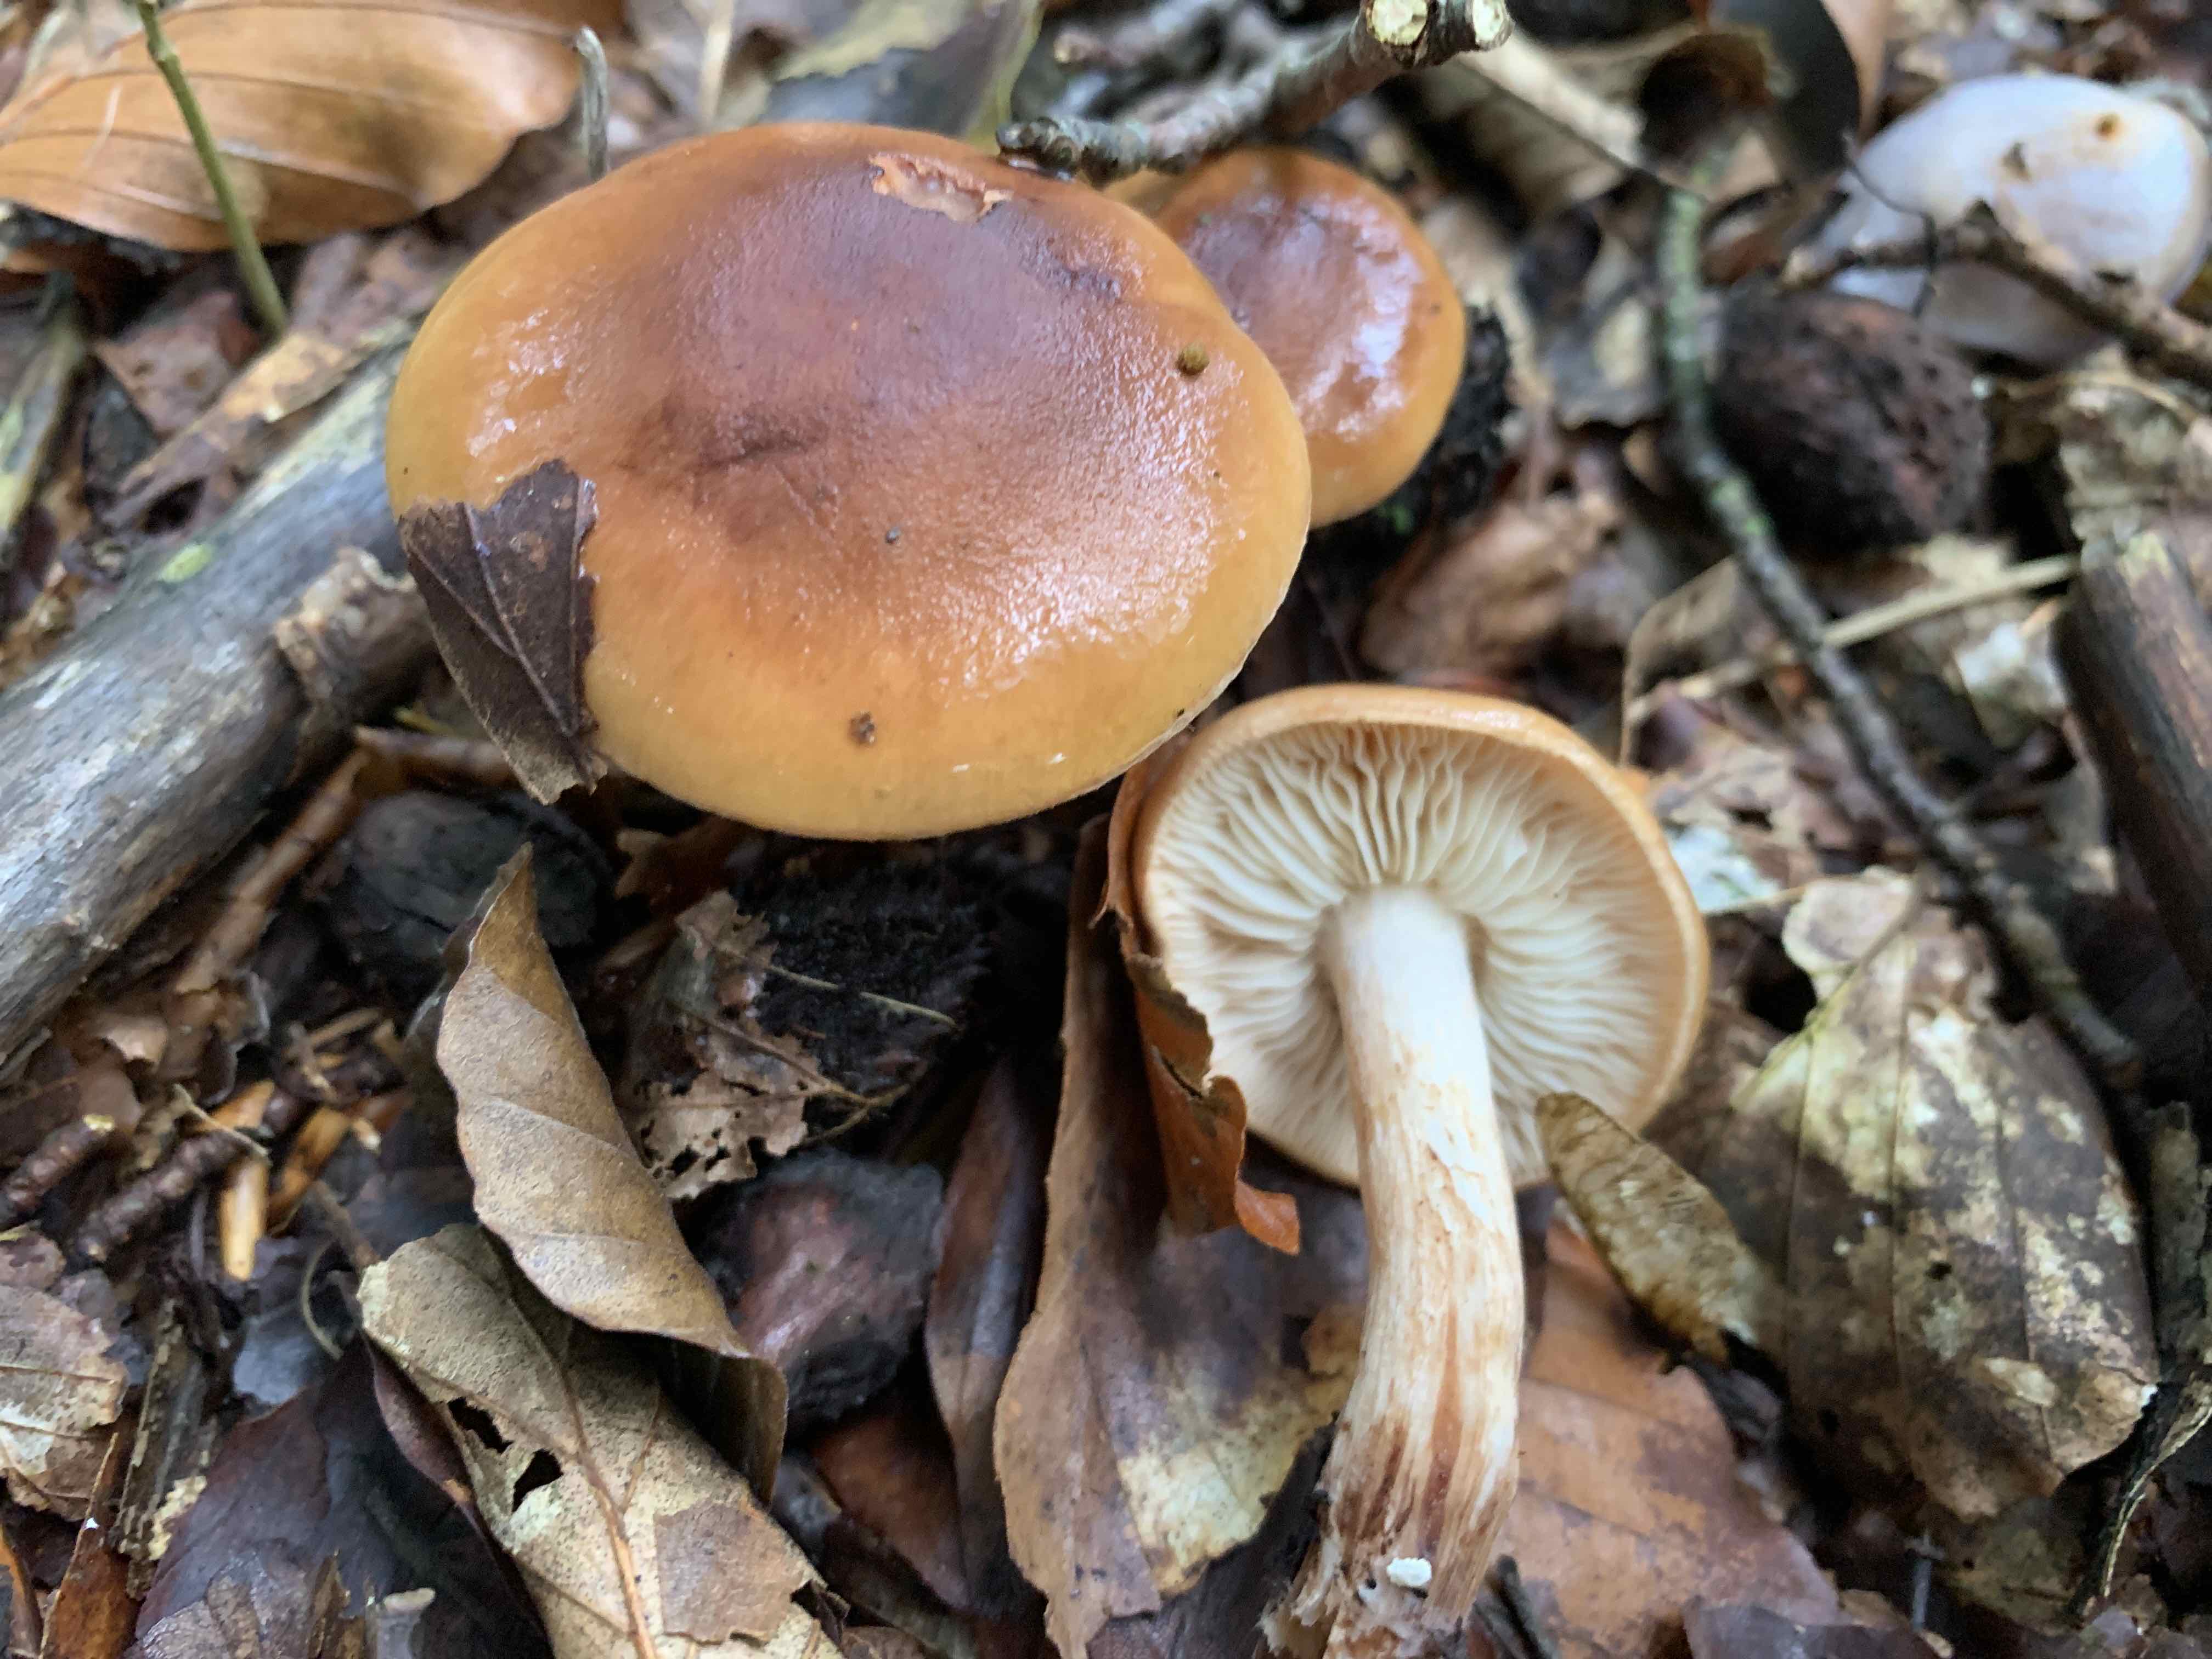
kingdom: Fungi
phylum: Basidiomycota
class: Agaricomycetes
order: Agaricales
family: Tricholomataceae
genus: Tricholoma
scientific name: Tricholoma ustale
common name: sveden ridderhat
